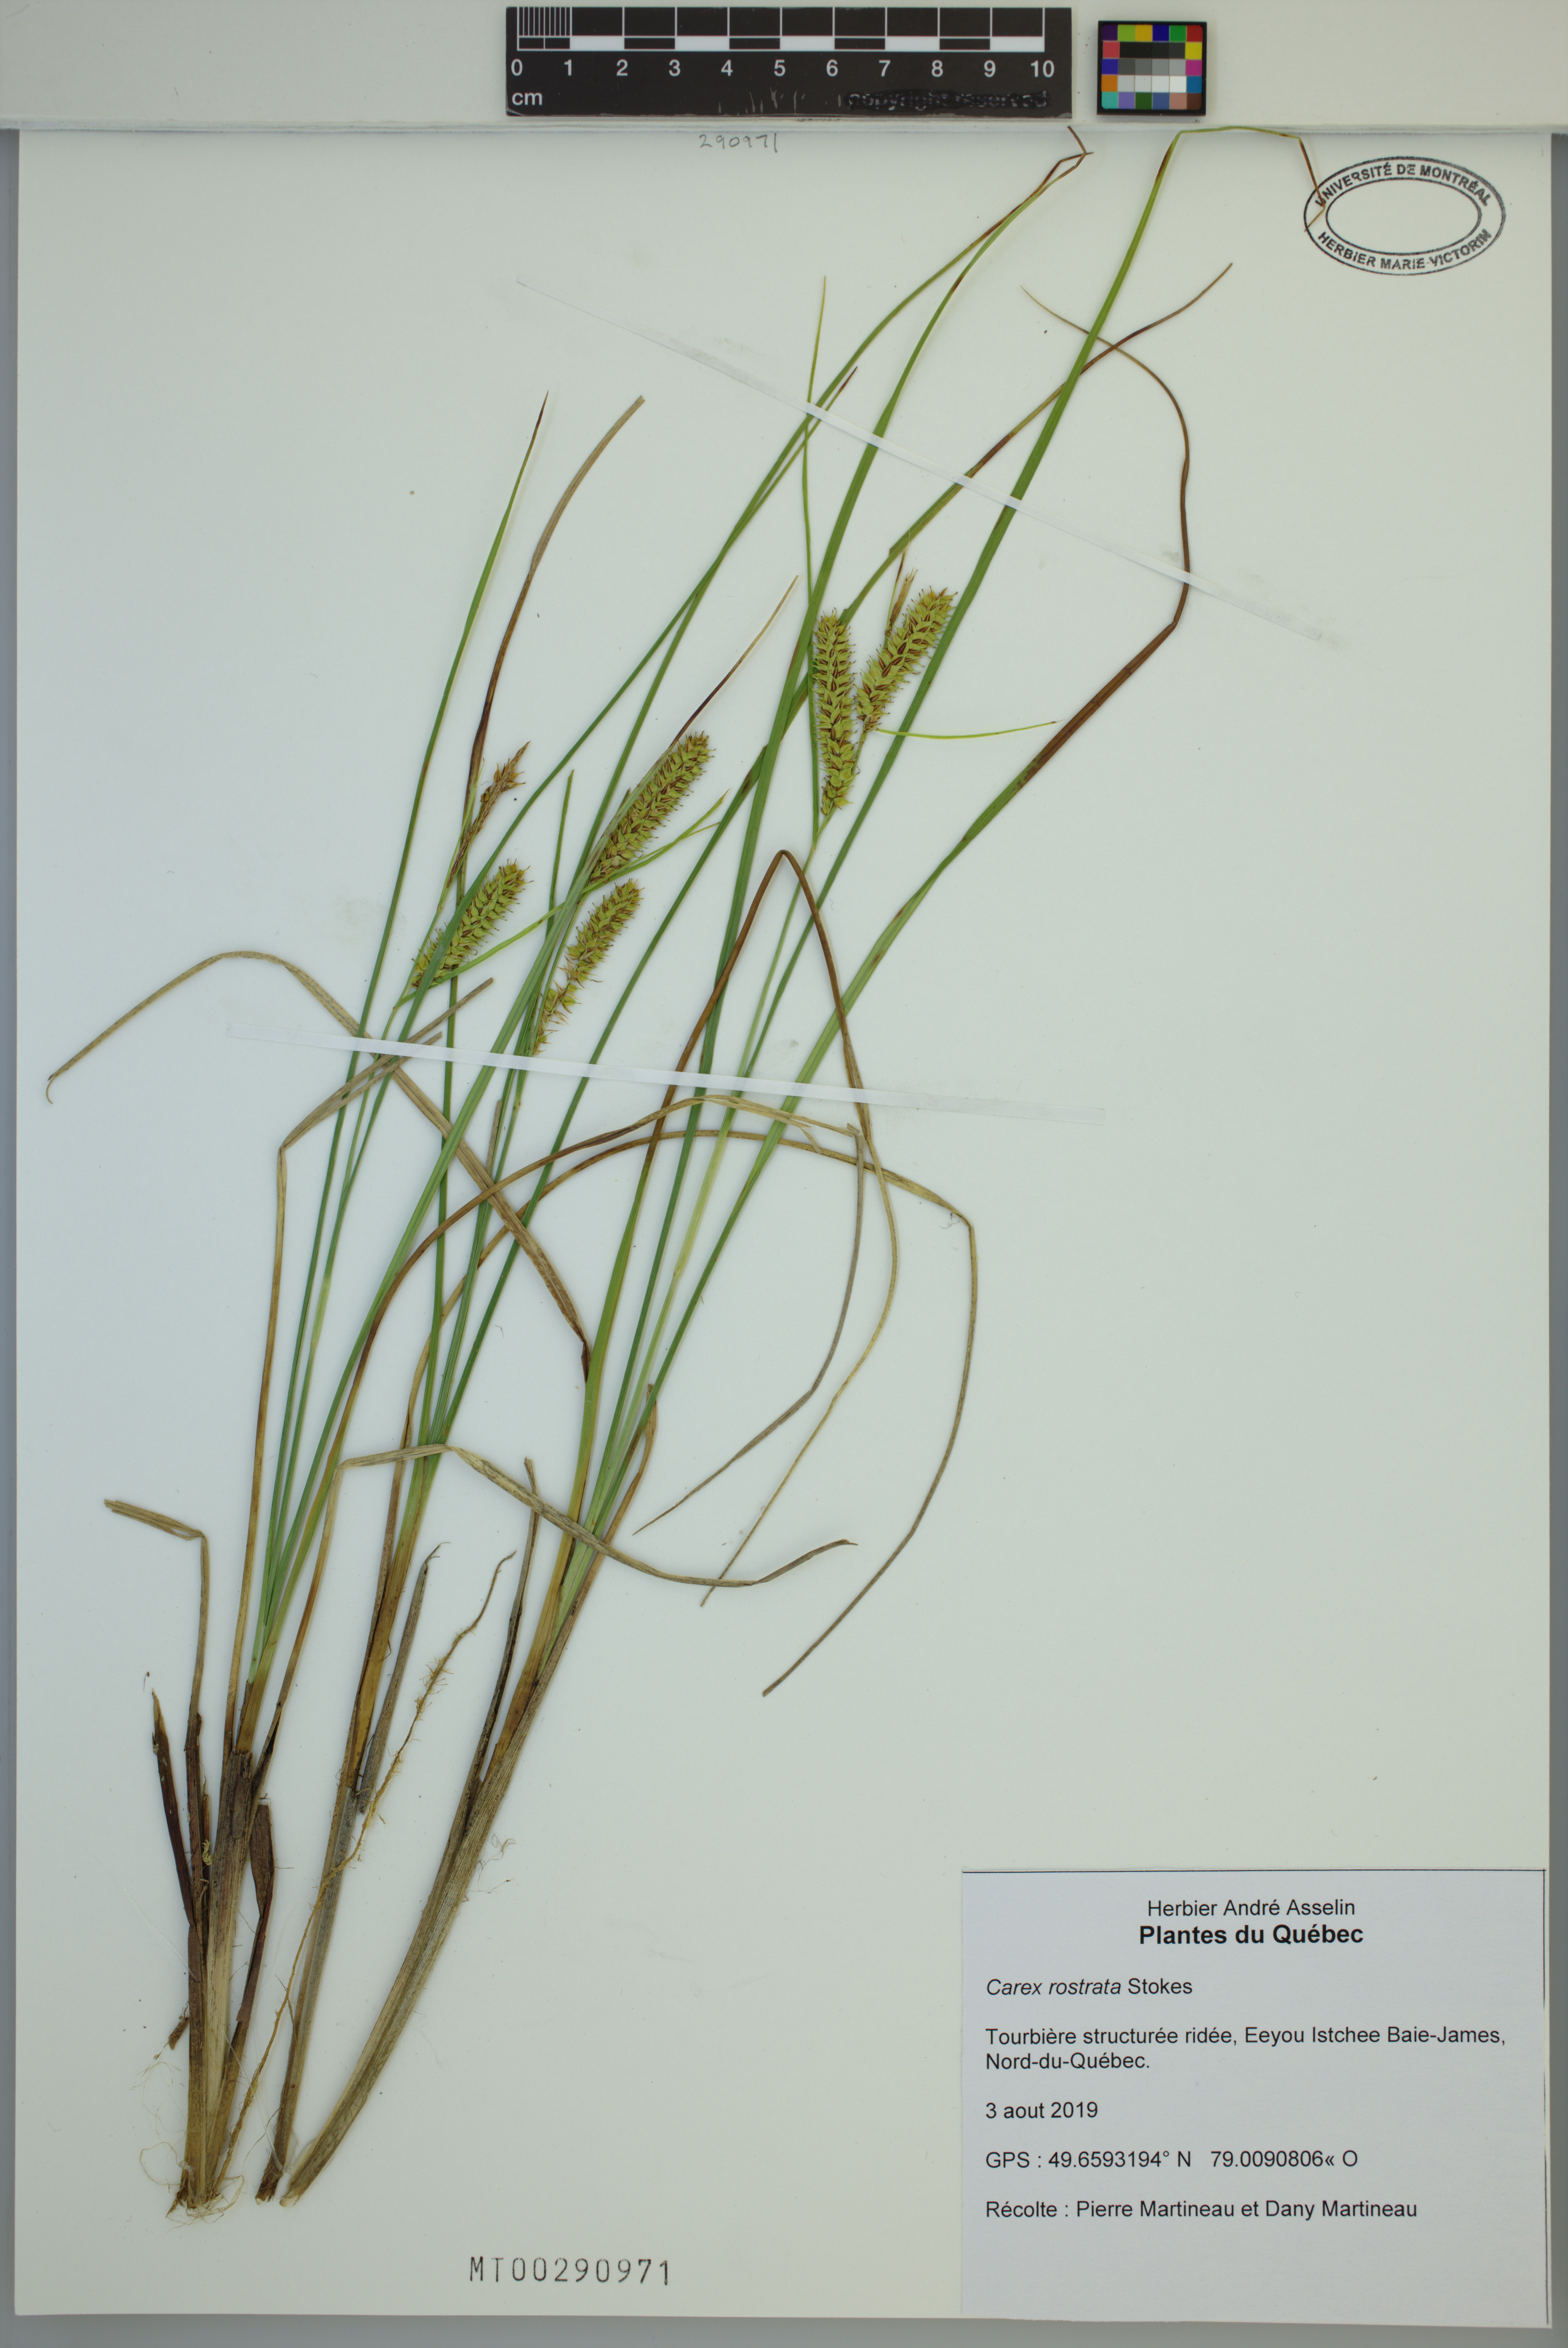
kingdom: Plantae
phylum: Tracheophyta
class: Liliopsida
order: Poales
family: Cyperaceae
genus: Carex
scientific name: Carex rostrata
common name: Bottle sedge
